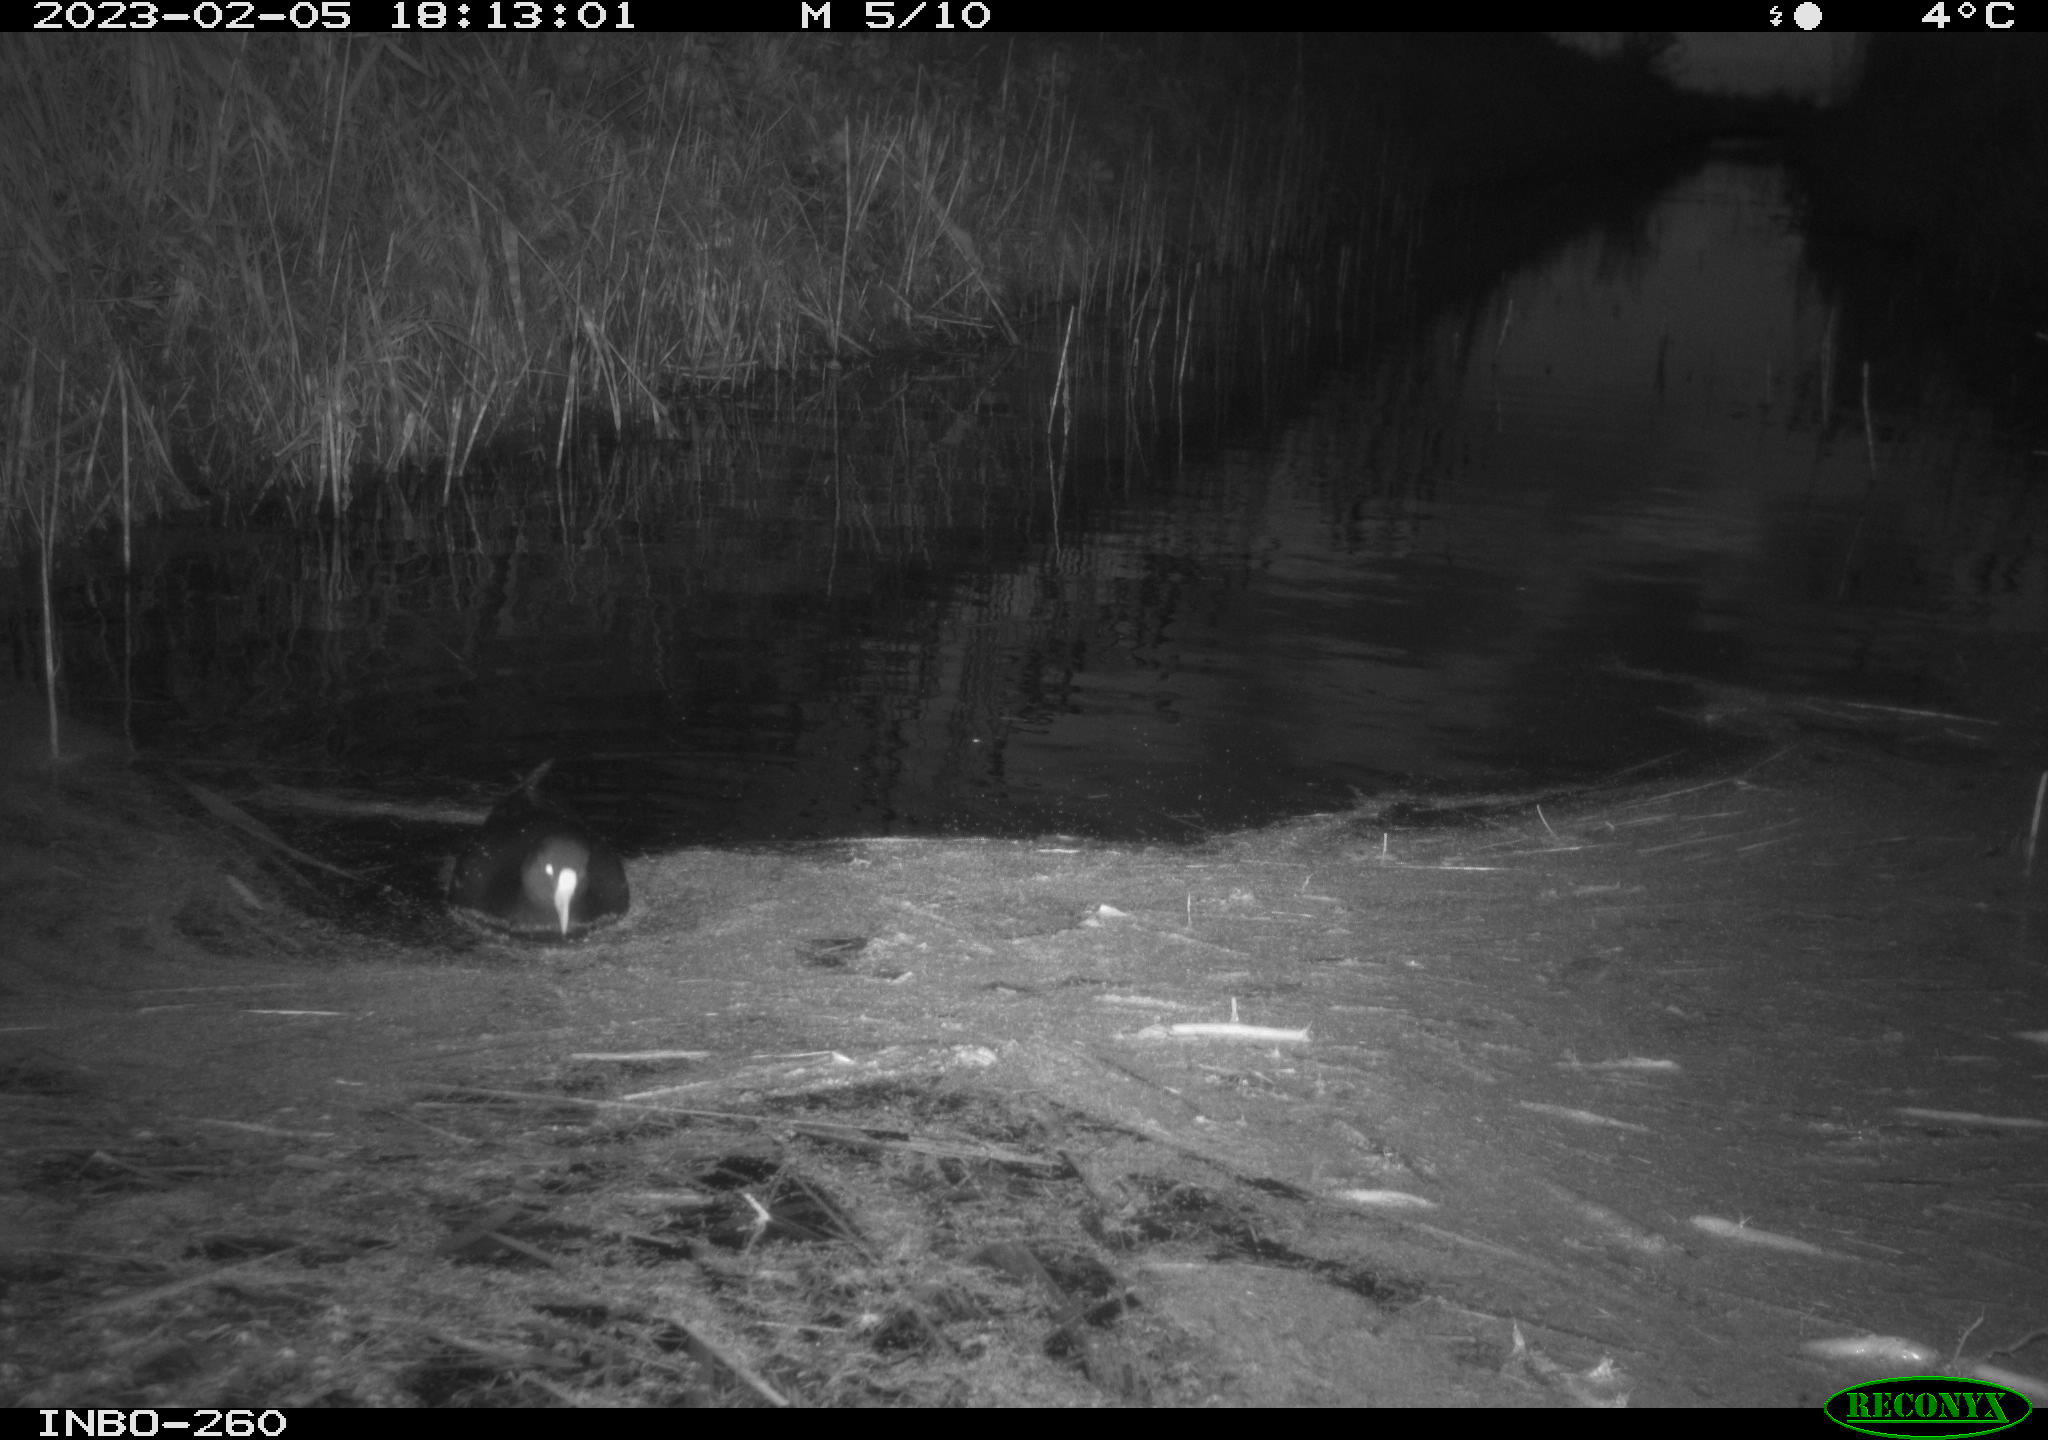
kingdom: Animalia
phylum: Chordata
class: Aves
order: Gruiformes
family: Rallidae
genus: Gallinula
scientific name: Gallinula chloropus
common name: Common moorhen
